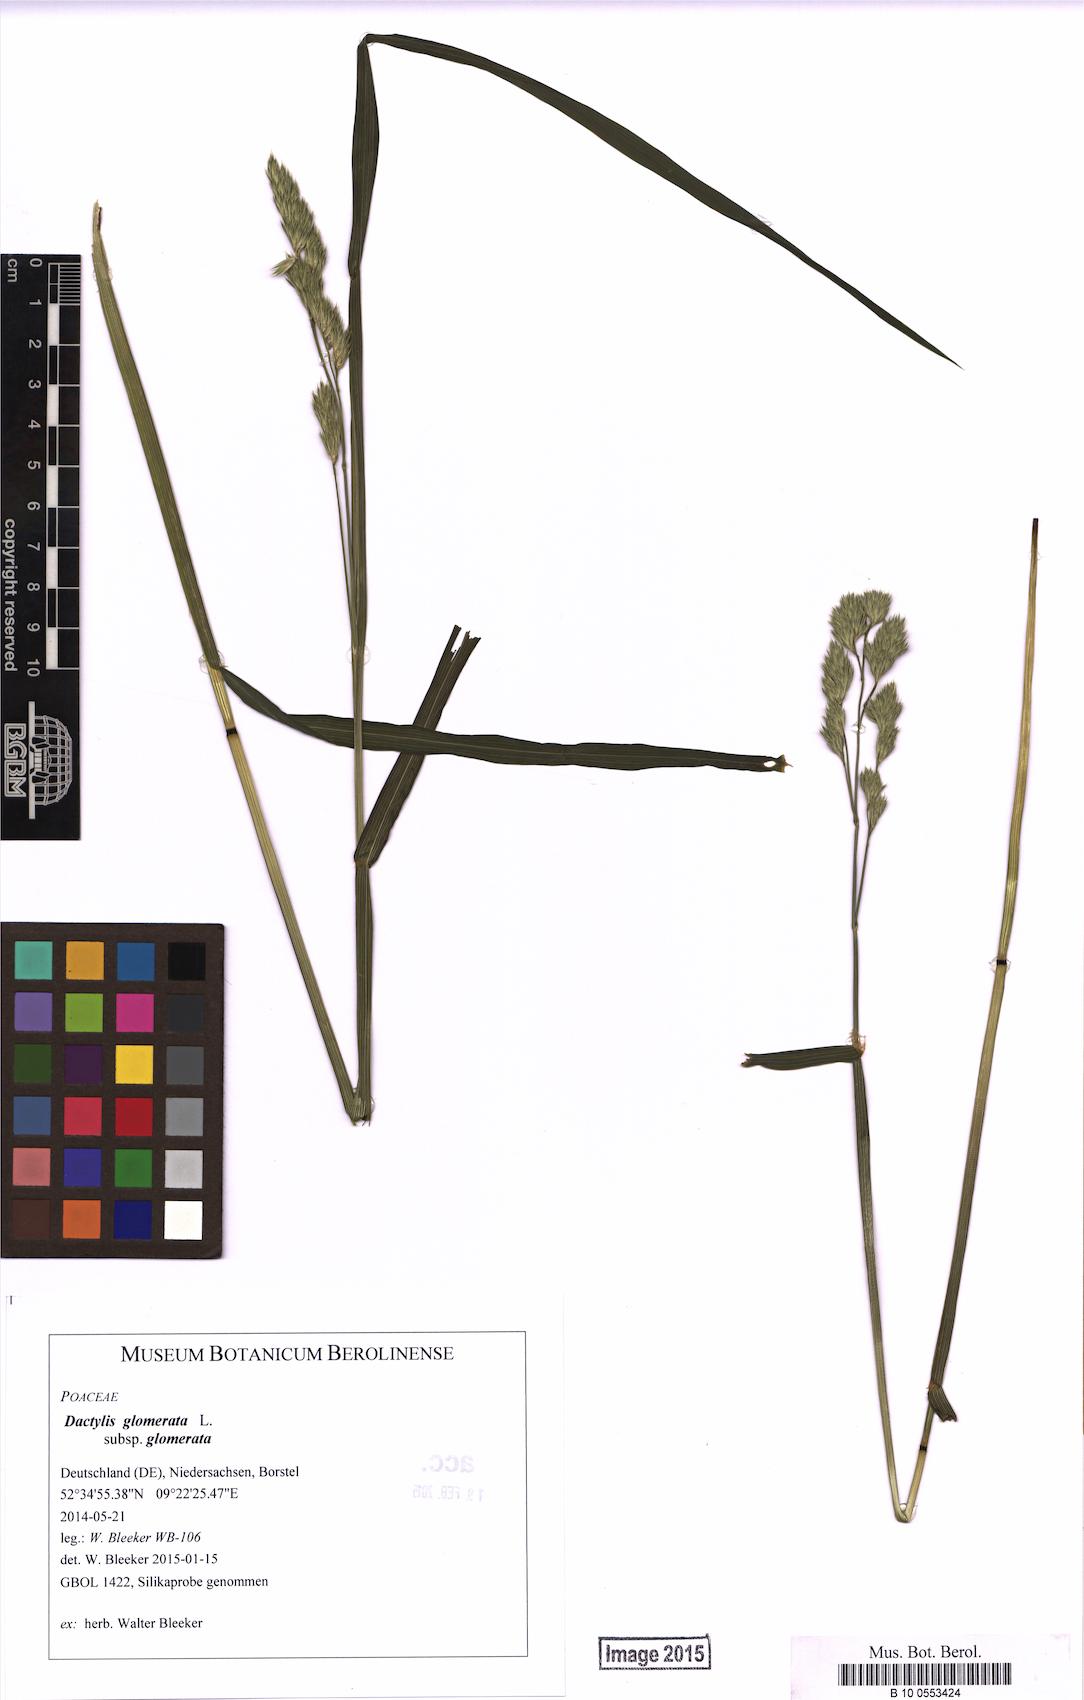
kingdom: Plantae
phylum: Tracheophyta
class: Liliopsida
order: Poales
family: Poaceae
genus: Dactylis
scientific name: Dactylis glomerata
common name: Orchardgrass
